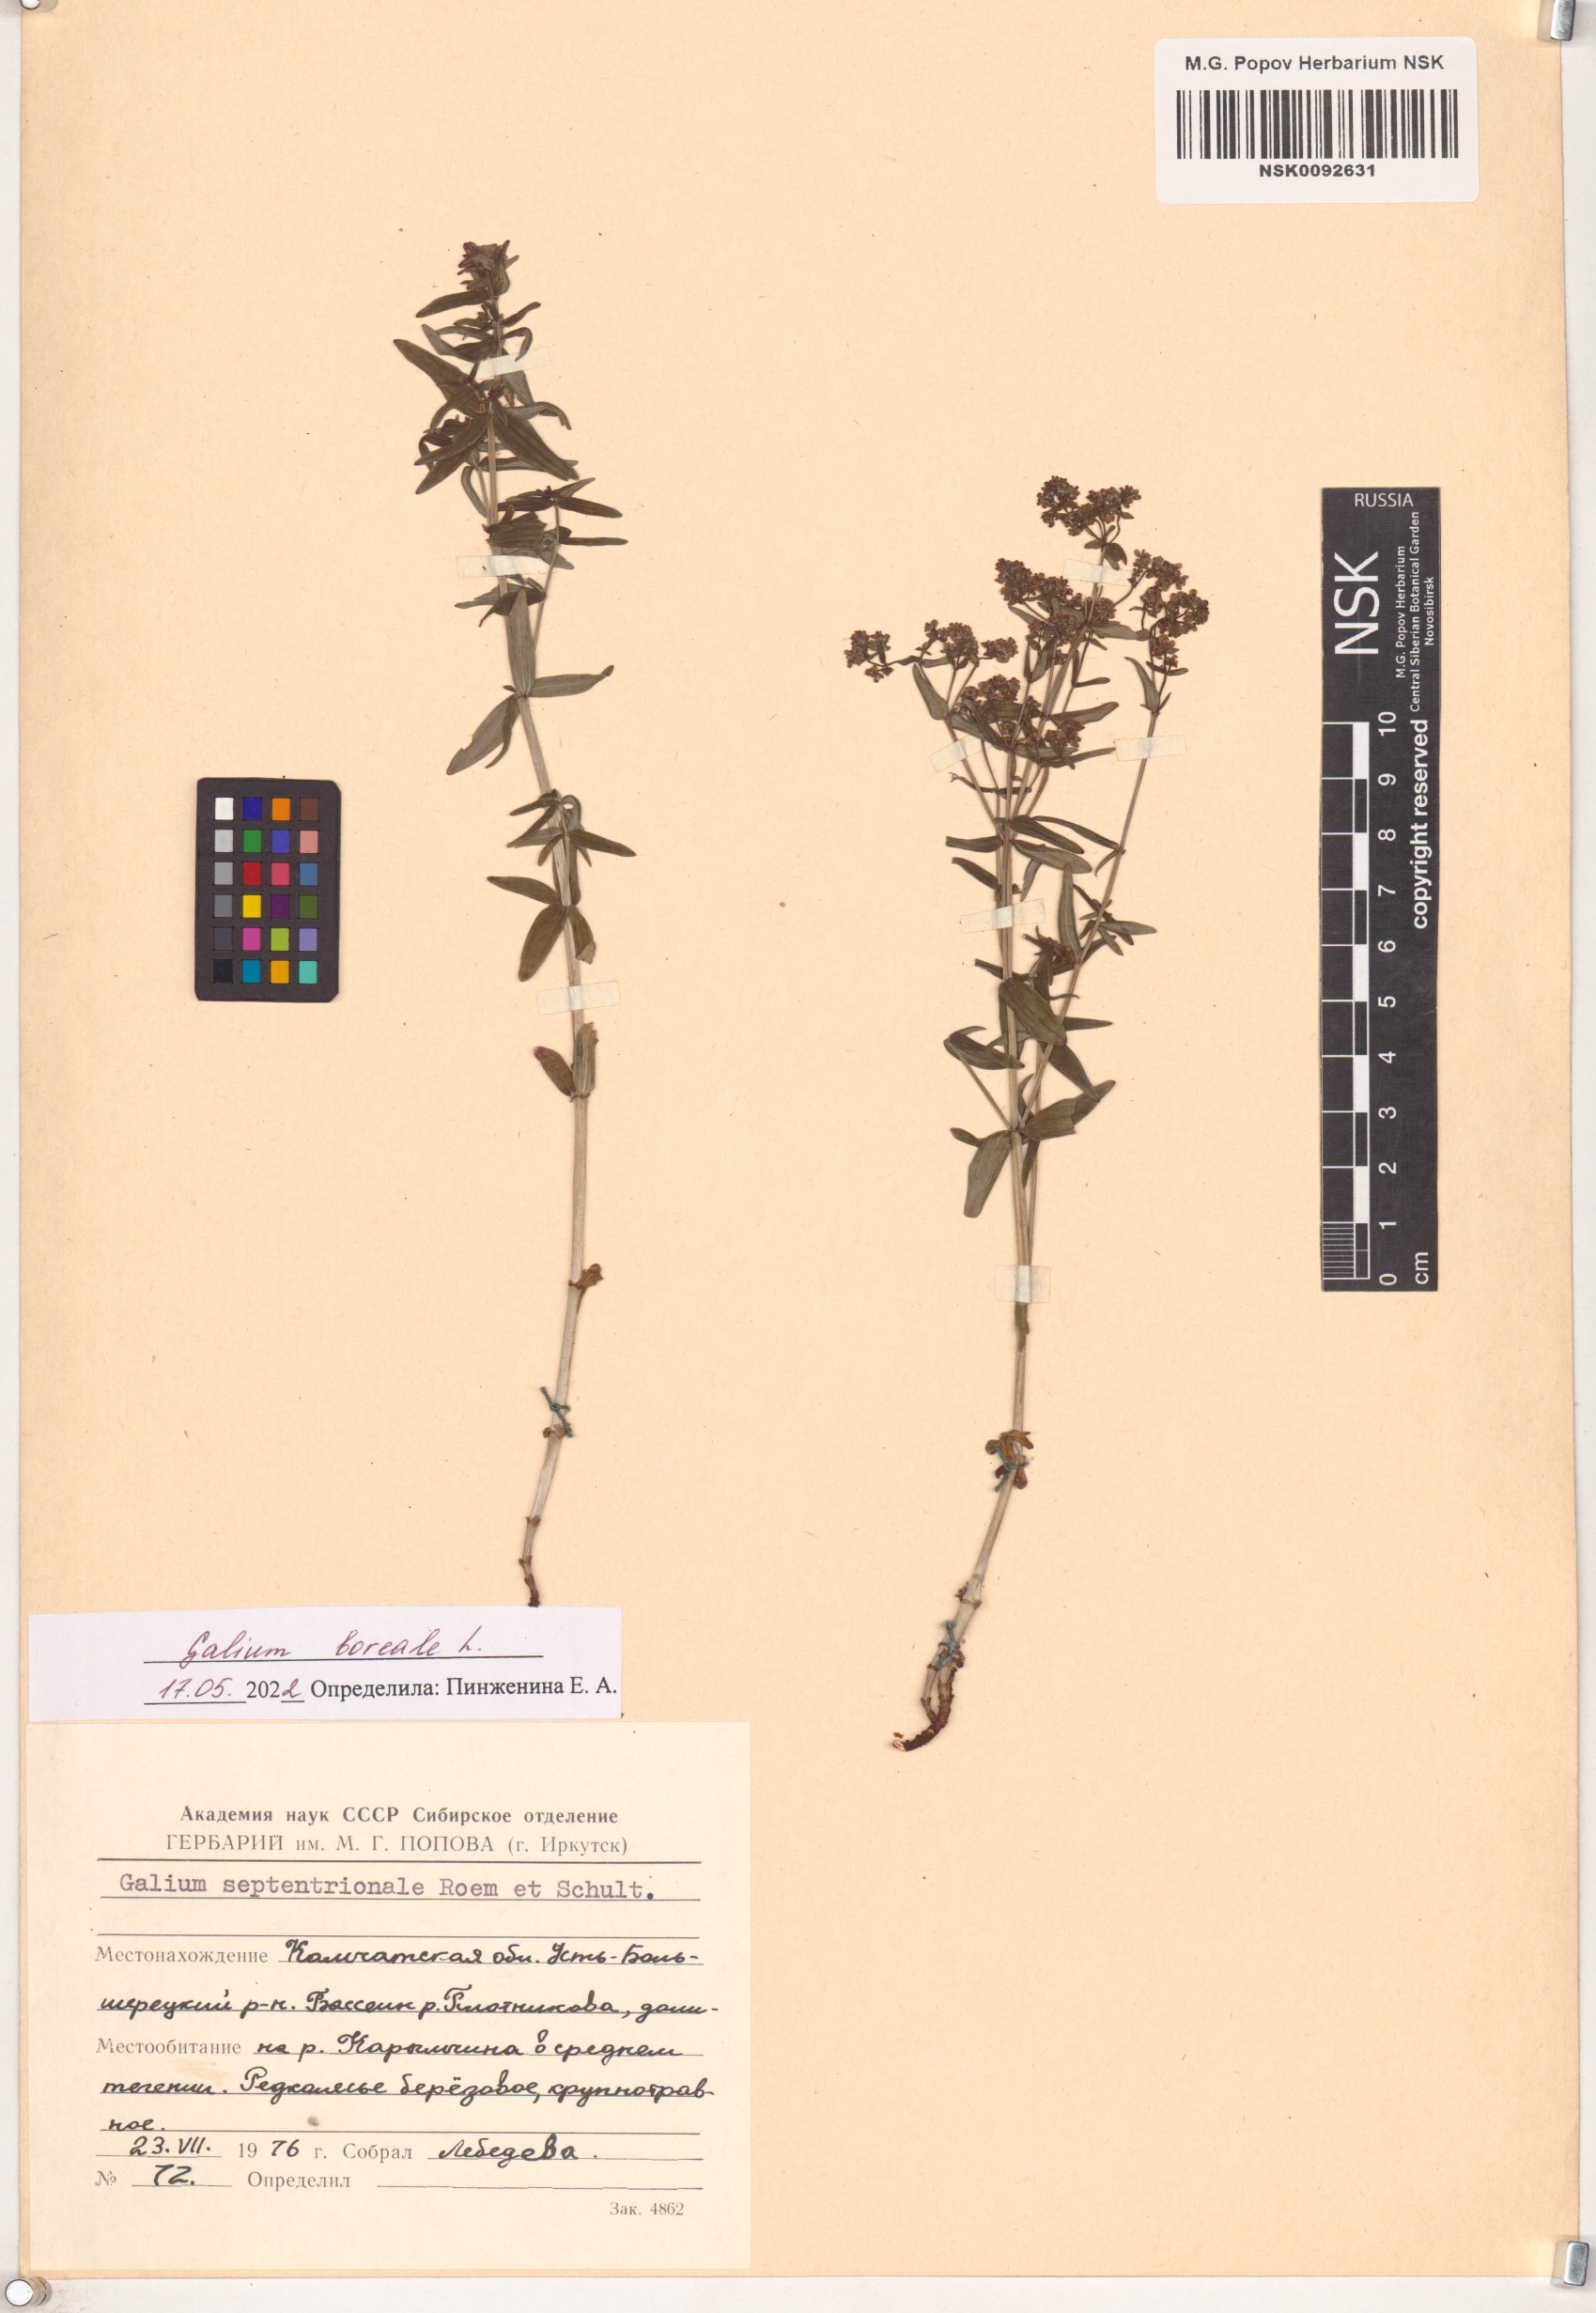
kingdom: Plantae
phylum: Tracheophyta
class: Magnoliopsida
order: Gentianales
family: Rubiaceae
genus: Galium
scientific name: Galium boreale
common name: Northern bedstraw
